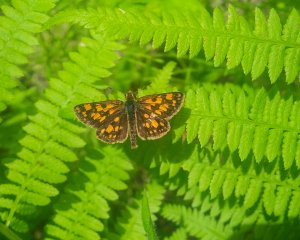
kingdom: Animalia
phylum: Arthropoda
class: Insecta
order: Lepidoptera
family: Hesperiidae
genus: Carterocephalus
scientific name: Carterocephalus palaemon
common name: Chequered Skipper
